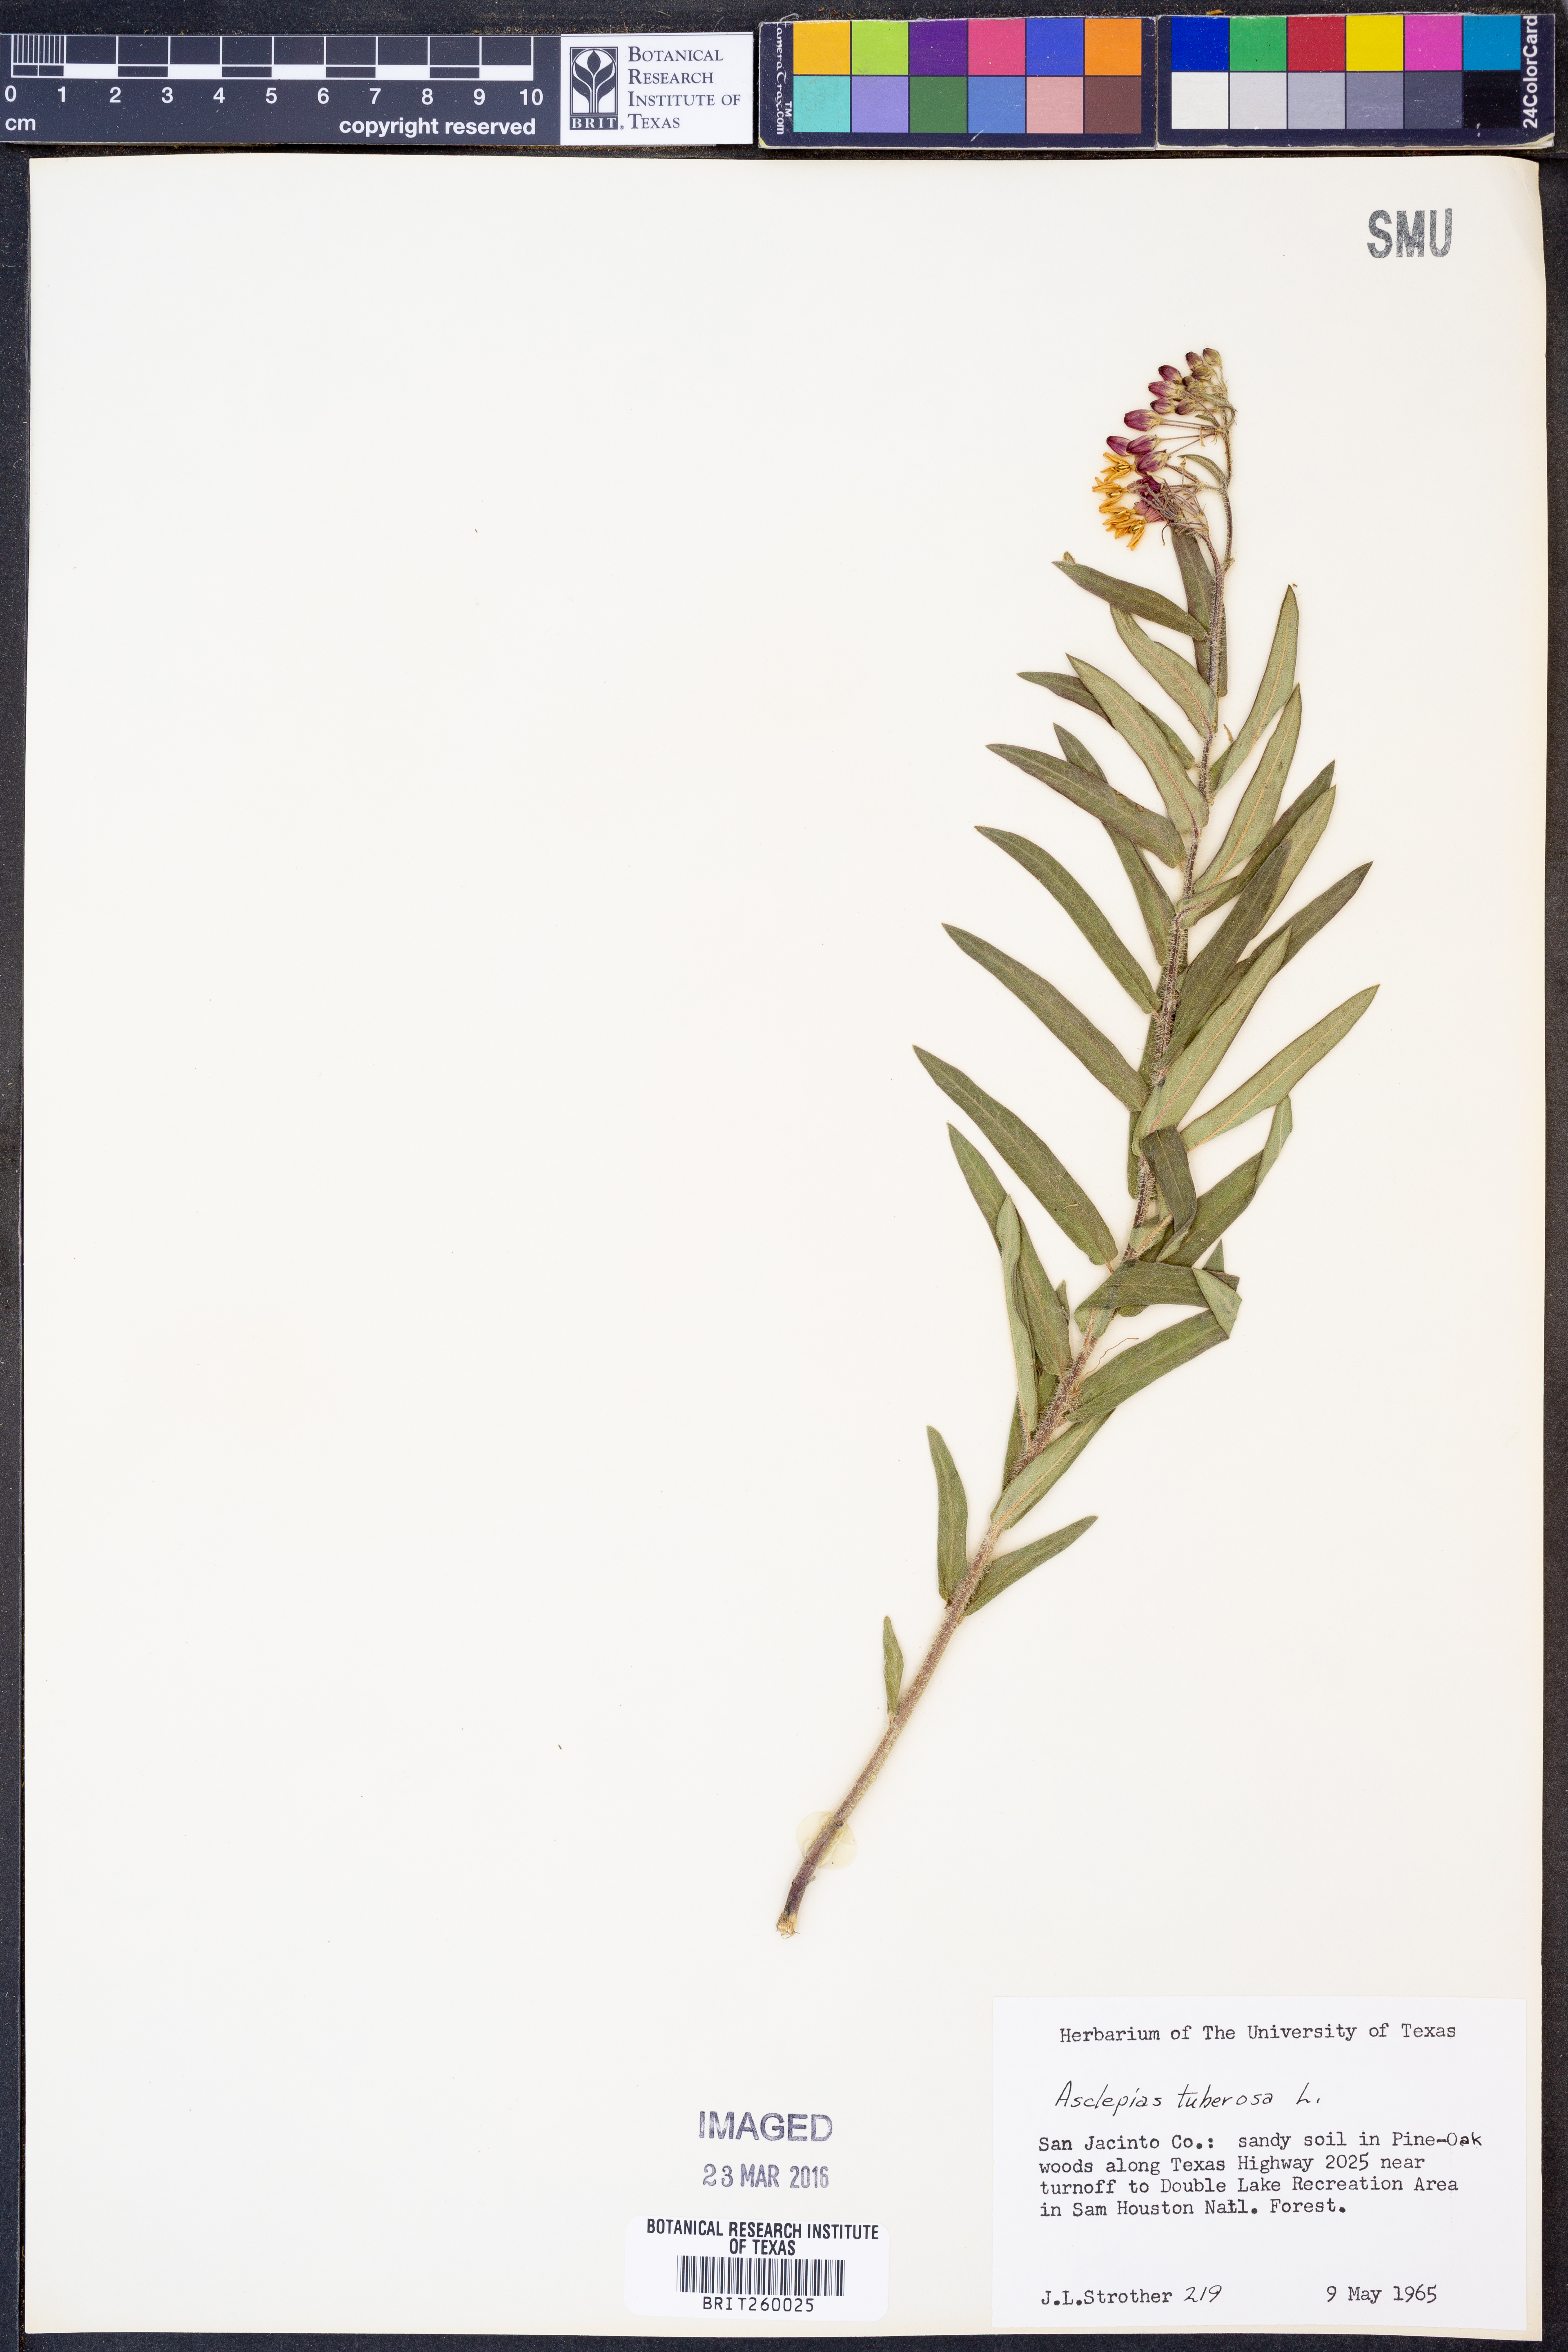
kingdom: Plantae
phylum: Tracheophyta
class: Magnoliopsida
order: Gentianales
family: Apocynaceae
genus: Asclepias
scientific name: Asclepias tuberosa
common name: Butterfly milkweed
